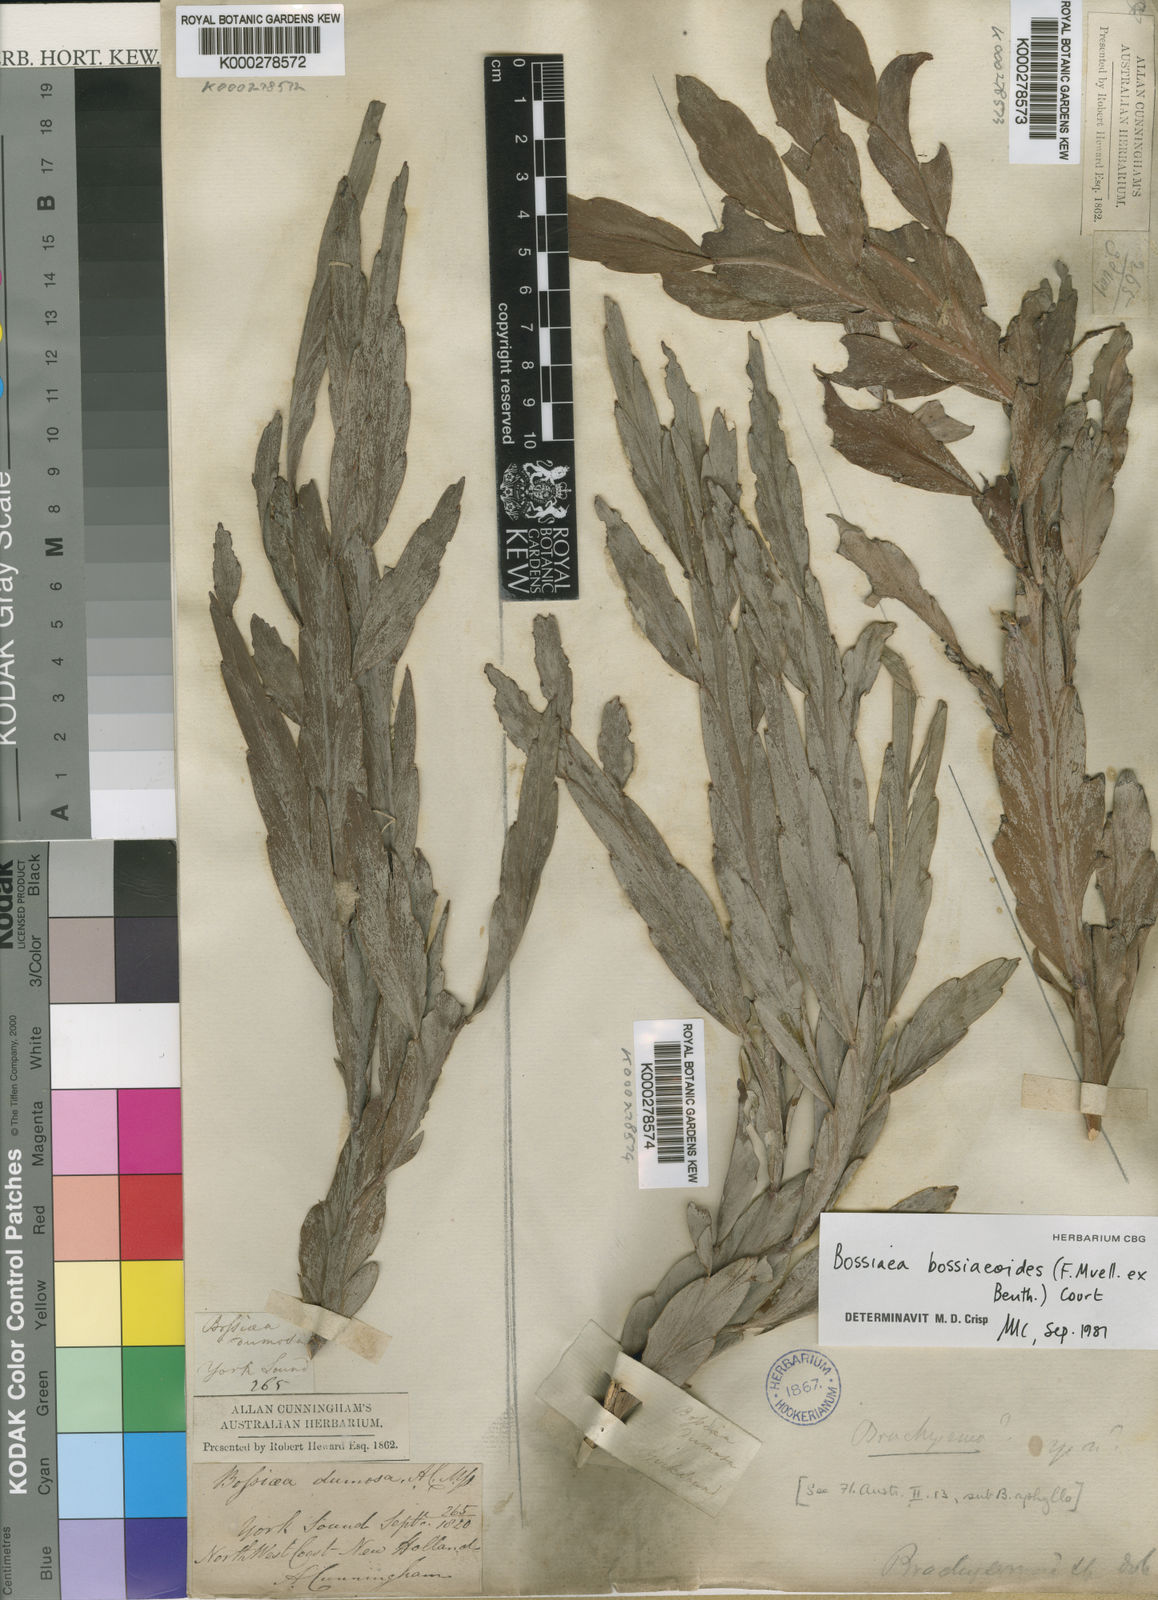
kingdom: Plantae
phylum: Tracheophyta
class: Magnoliopsida
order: Fabales
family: Fabaceae
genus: Bossiaea
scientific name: Bossiaea bossiaeoides
